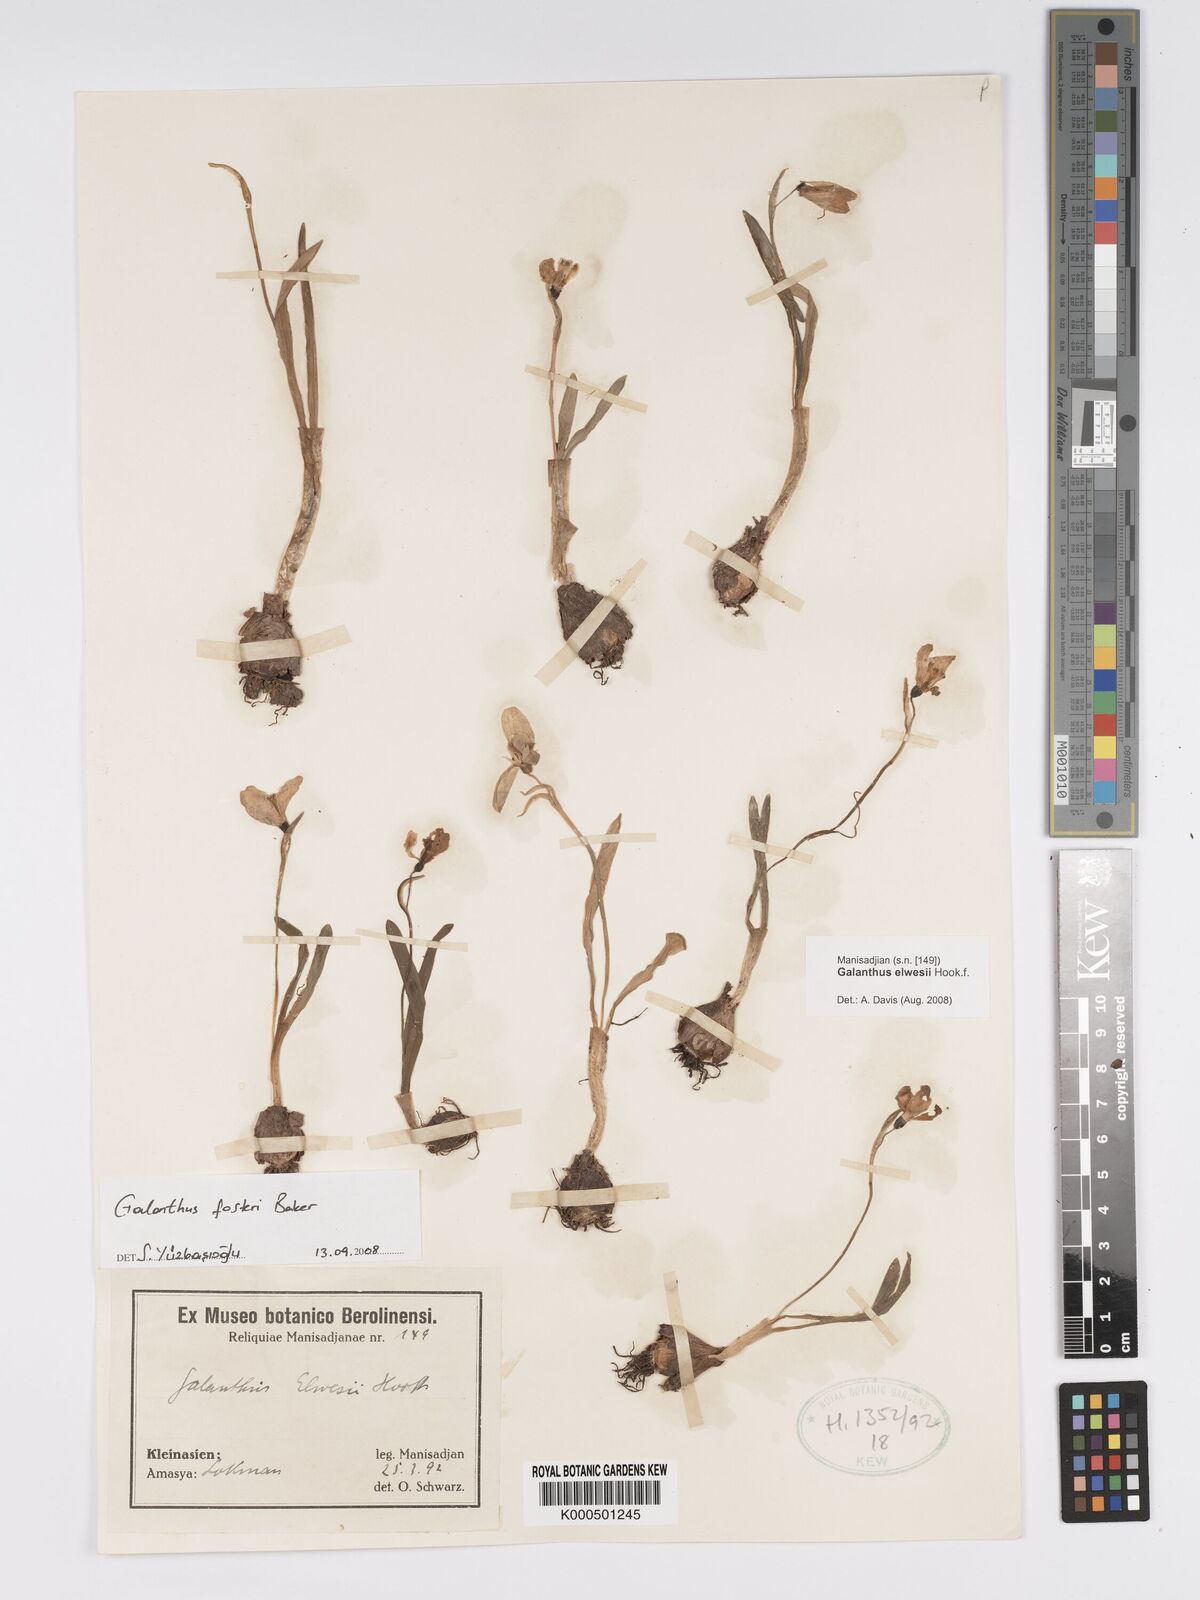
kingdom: Plantae
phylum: Tracheophyta
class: Liliopsida
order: Asparagales
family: Amaryllidaceae
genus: Galanthus
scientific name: Galanthus fosteri
